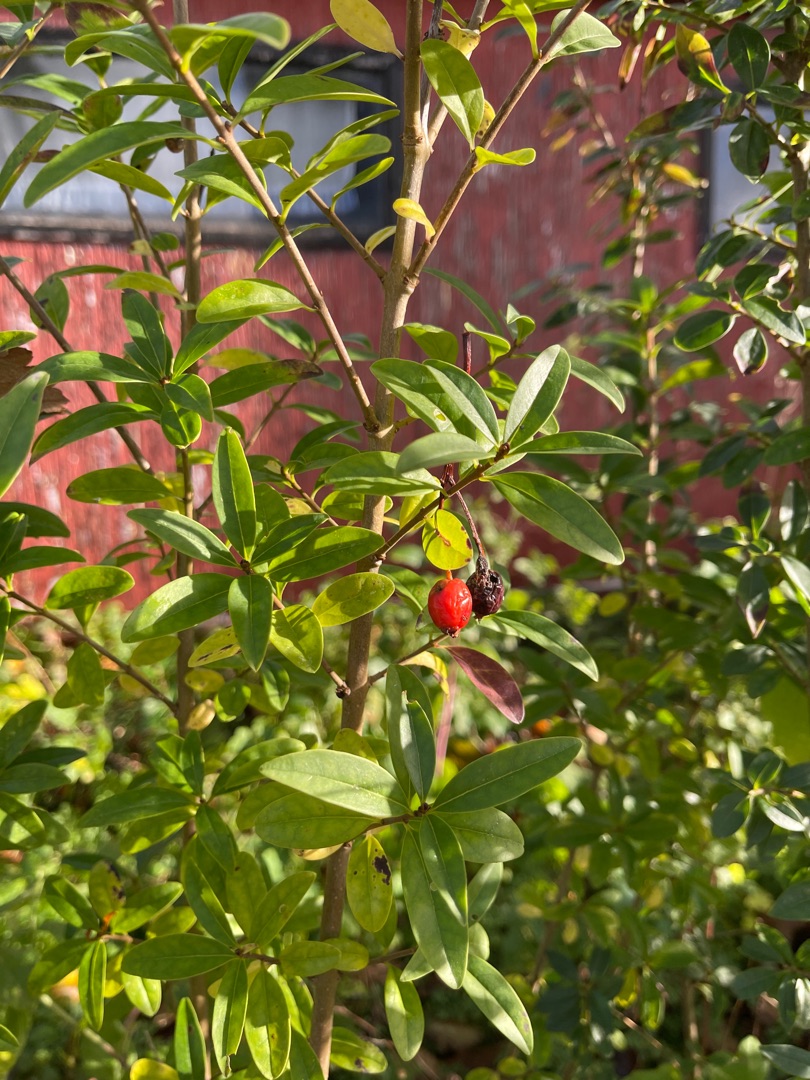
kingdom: Plantae
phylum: Tracheophyta
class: Magnoliopsida
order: Lamiales
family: Oleaceae
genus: Ligustrum
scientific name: Ligustrum vulgare
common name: Liguster
